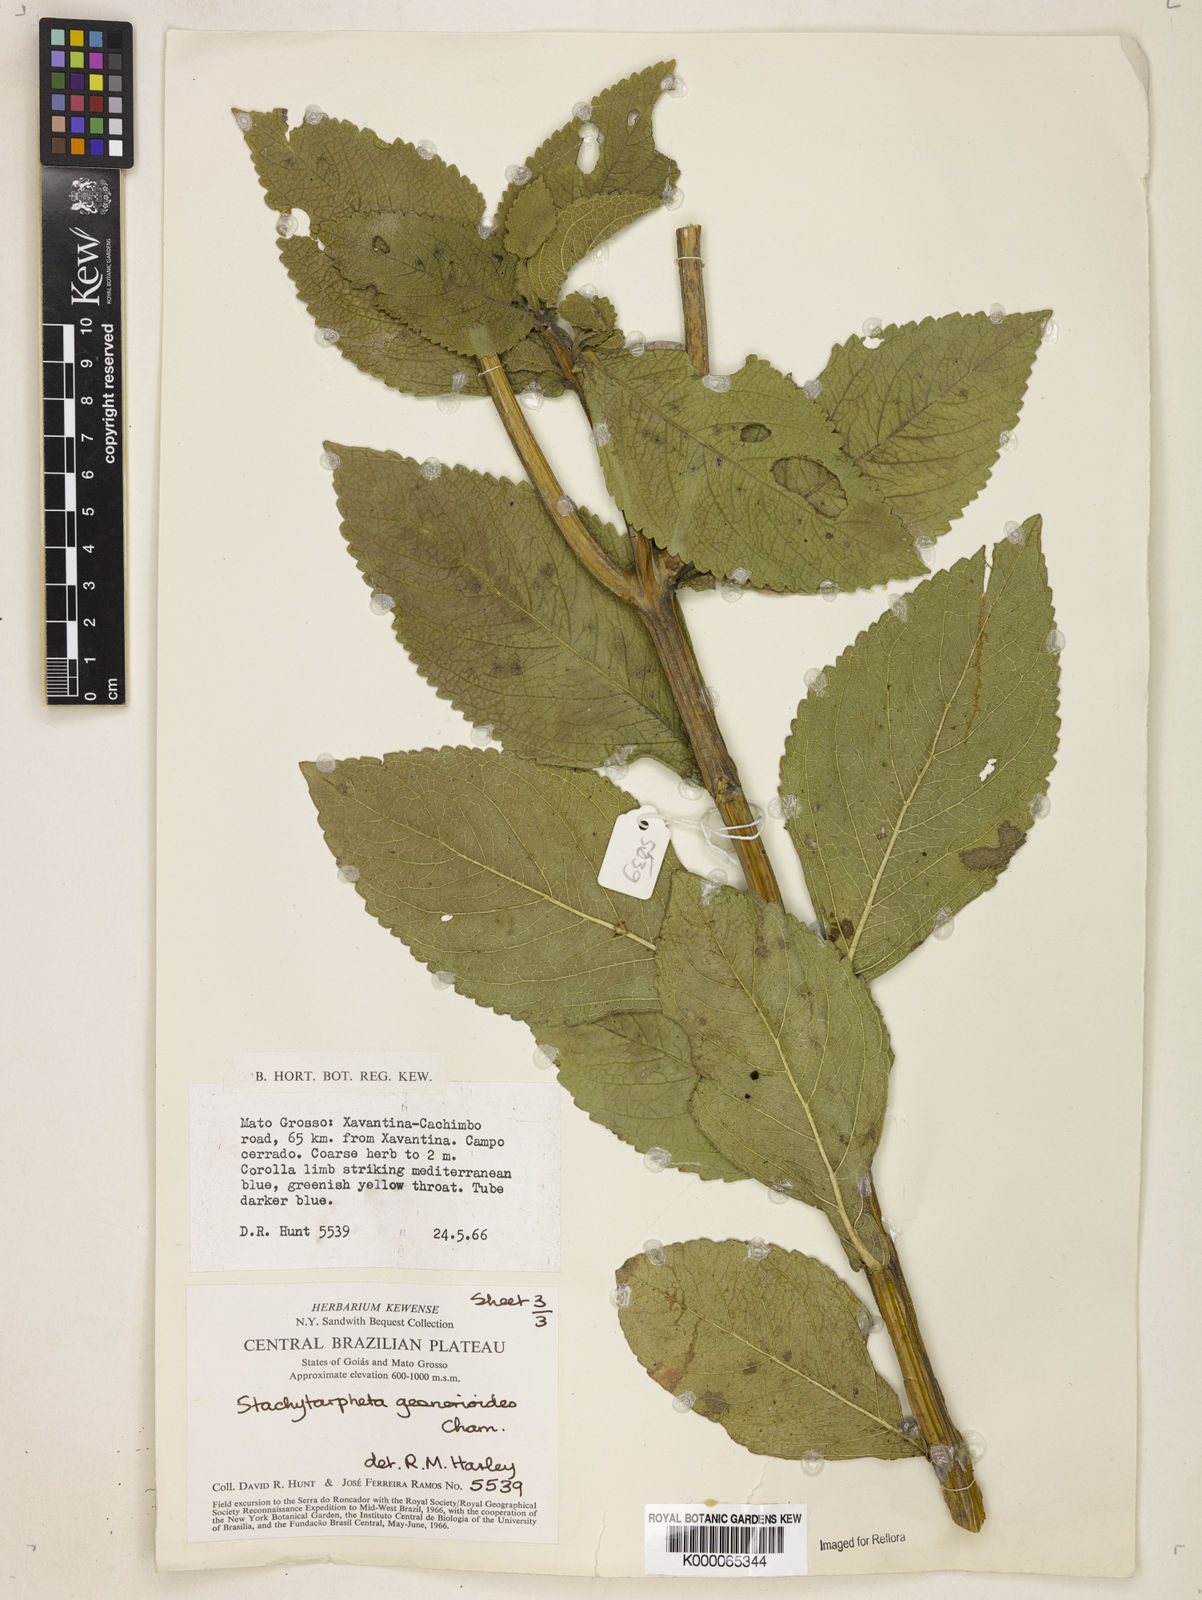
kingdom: Plantae
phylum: Tracheophyta
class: Magnoliopsida
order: Lamiales
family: Verbenaceae
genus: Stachytarpheta
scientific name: Stachytarpheta gesnerioides
